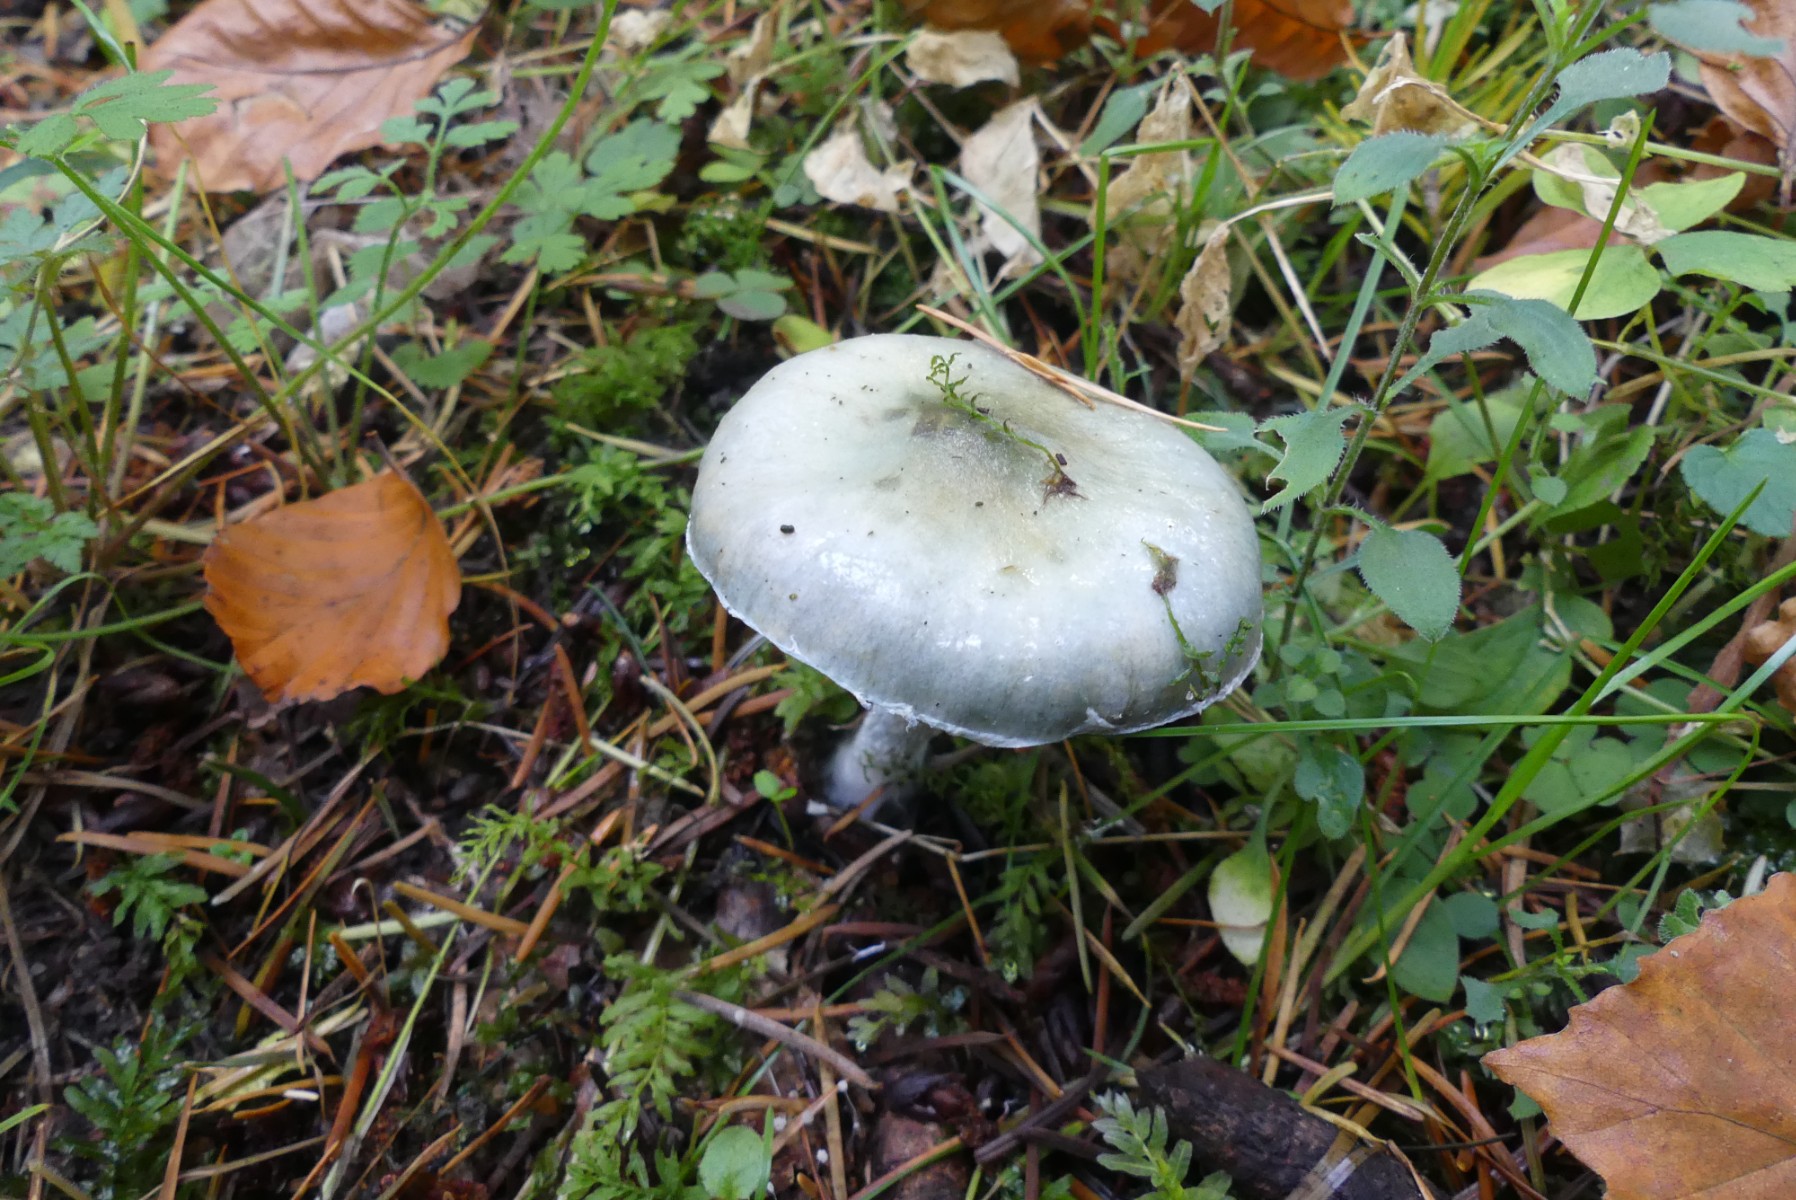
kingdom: Fungi
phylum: Basidiomycota
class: Agaricomycetes
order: Agaricales
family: Strophariaceae
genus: Stropharia
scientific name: Stropharia cyanea
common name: blågrøn bredblad
